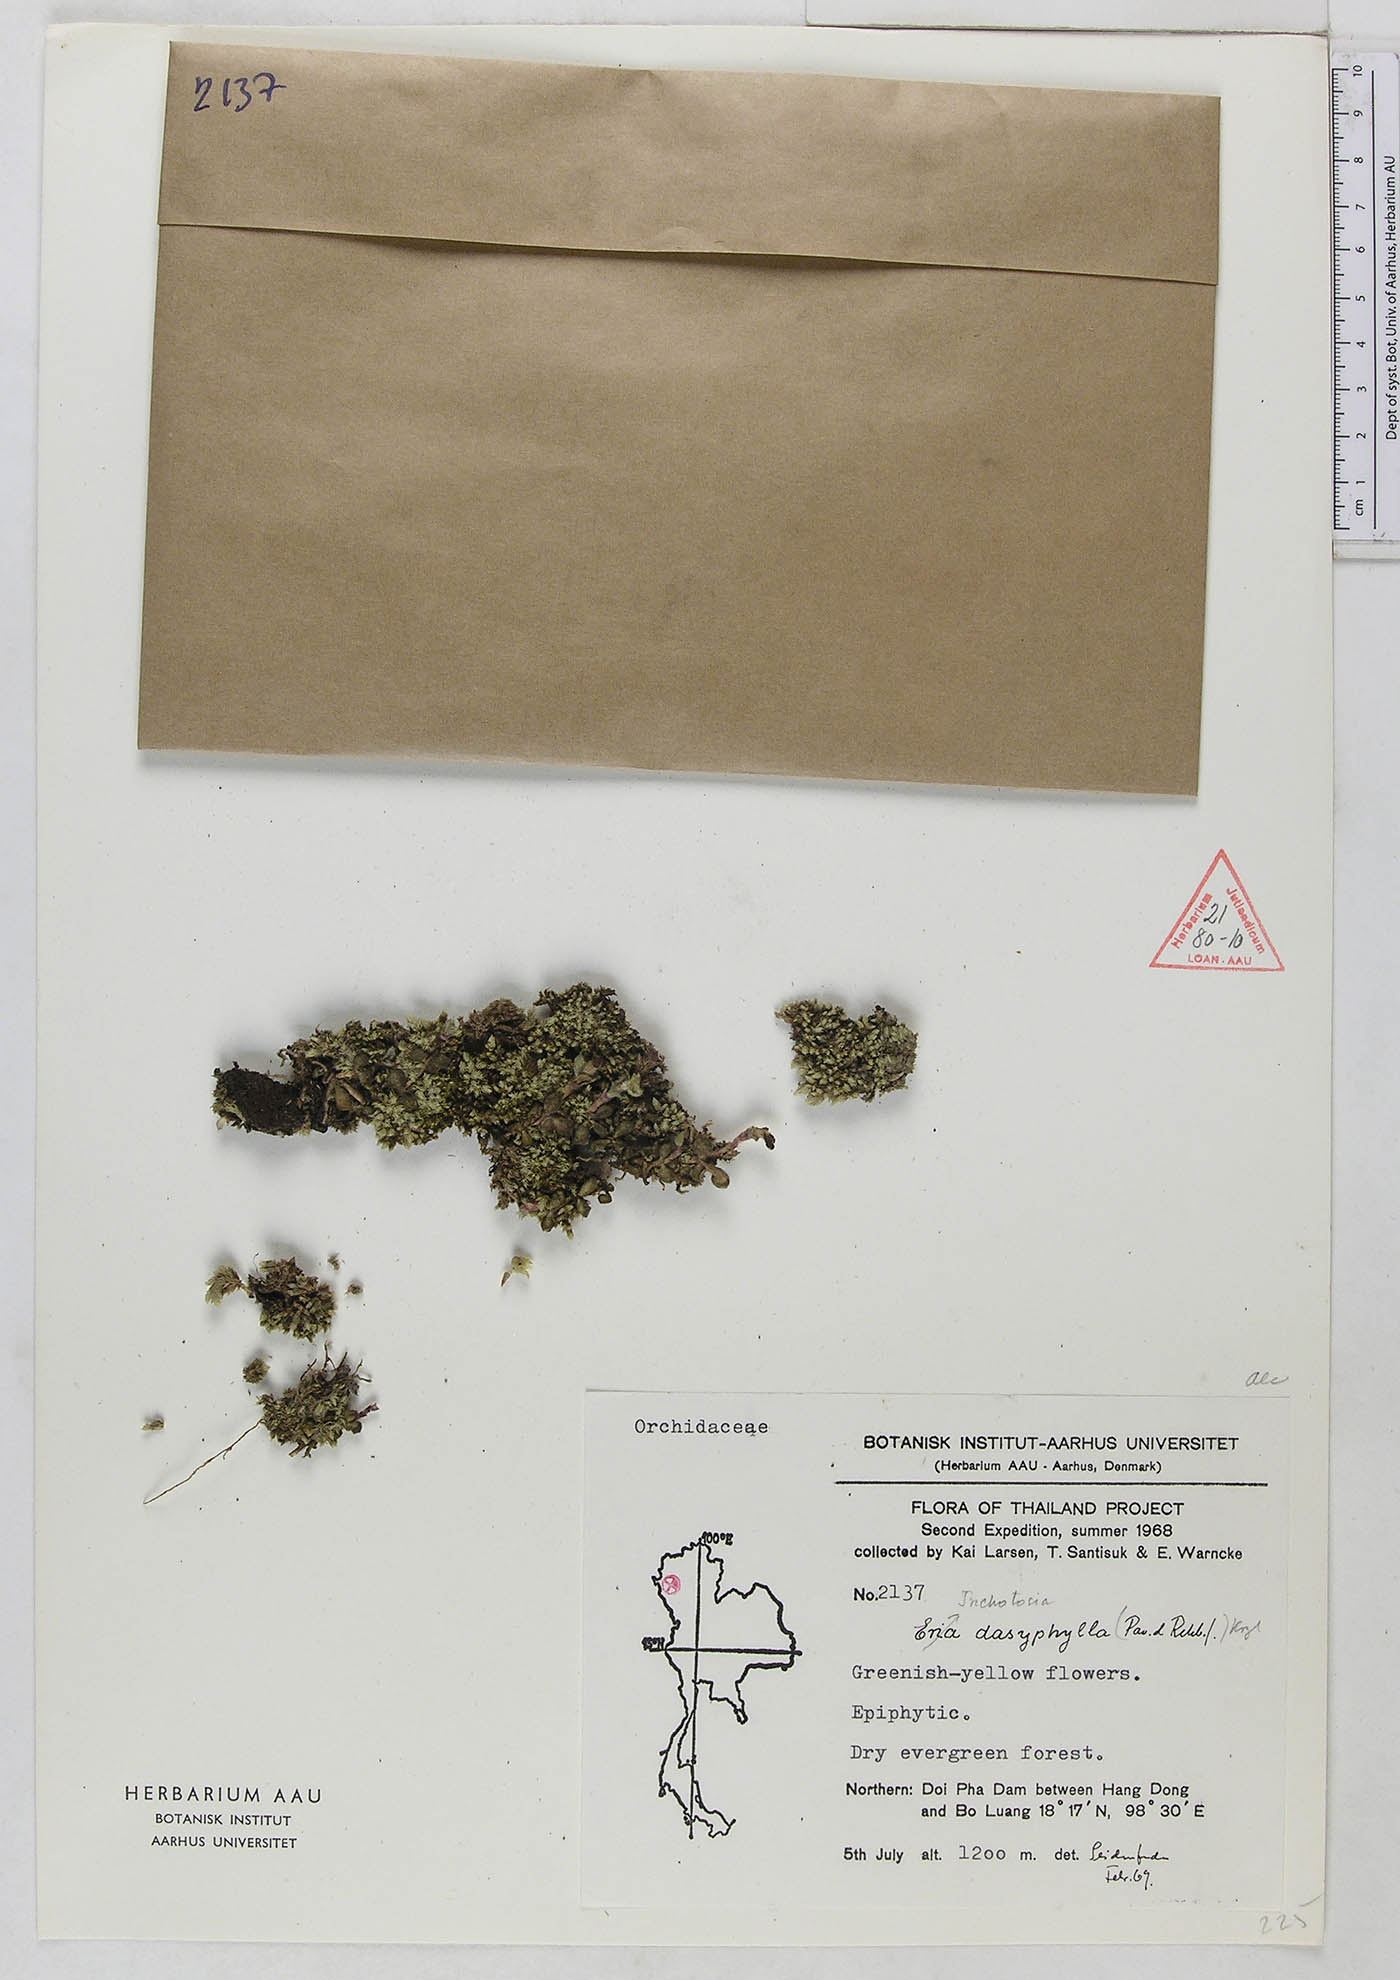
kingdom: Plantae
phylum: Tracheophyta
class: Liliopsida
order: Asparagales
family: Orchidaceae
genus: Trichotosia
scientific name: Trichotosia dasyphylla
